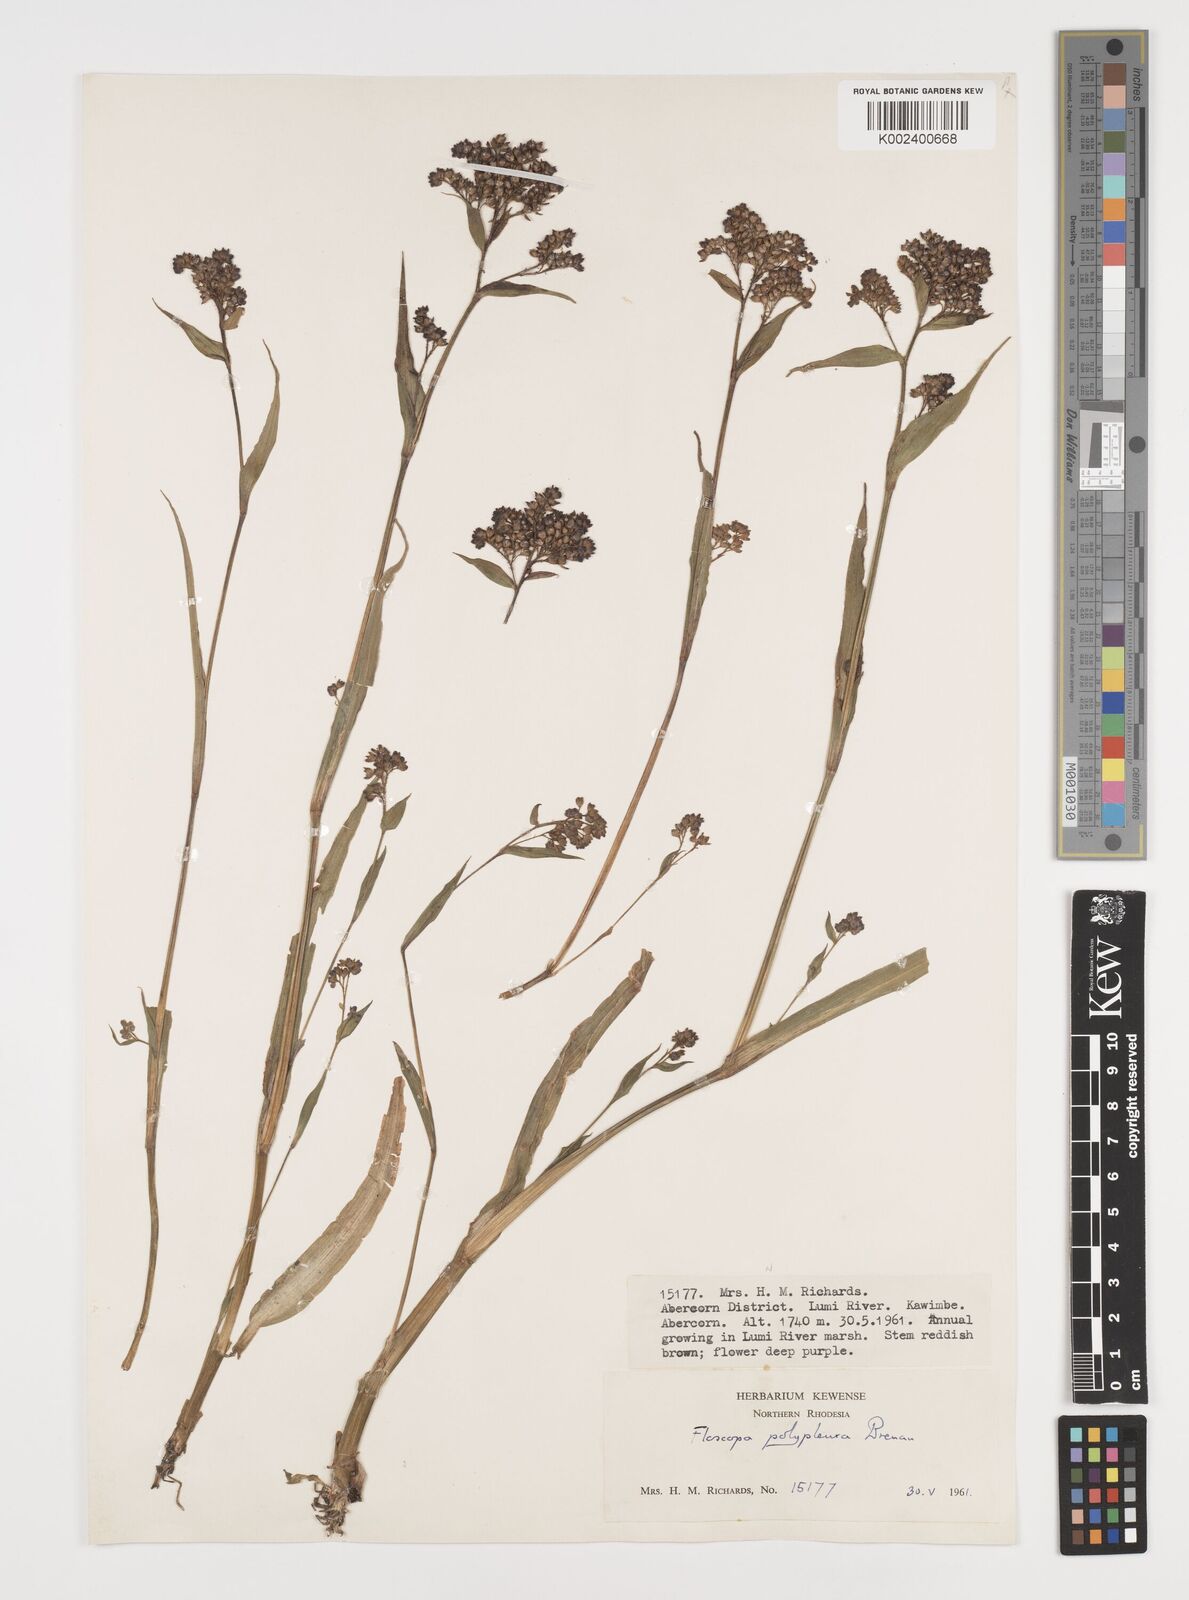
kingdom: Plantae
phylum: Tracheophyta
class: Liliopsida
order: Commelinales
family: Commelinaceae
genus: Floscopa
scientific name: Floscopa polypleura
